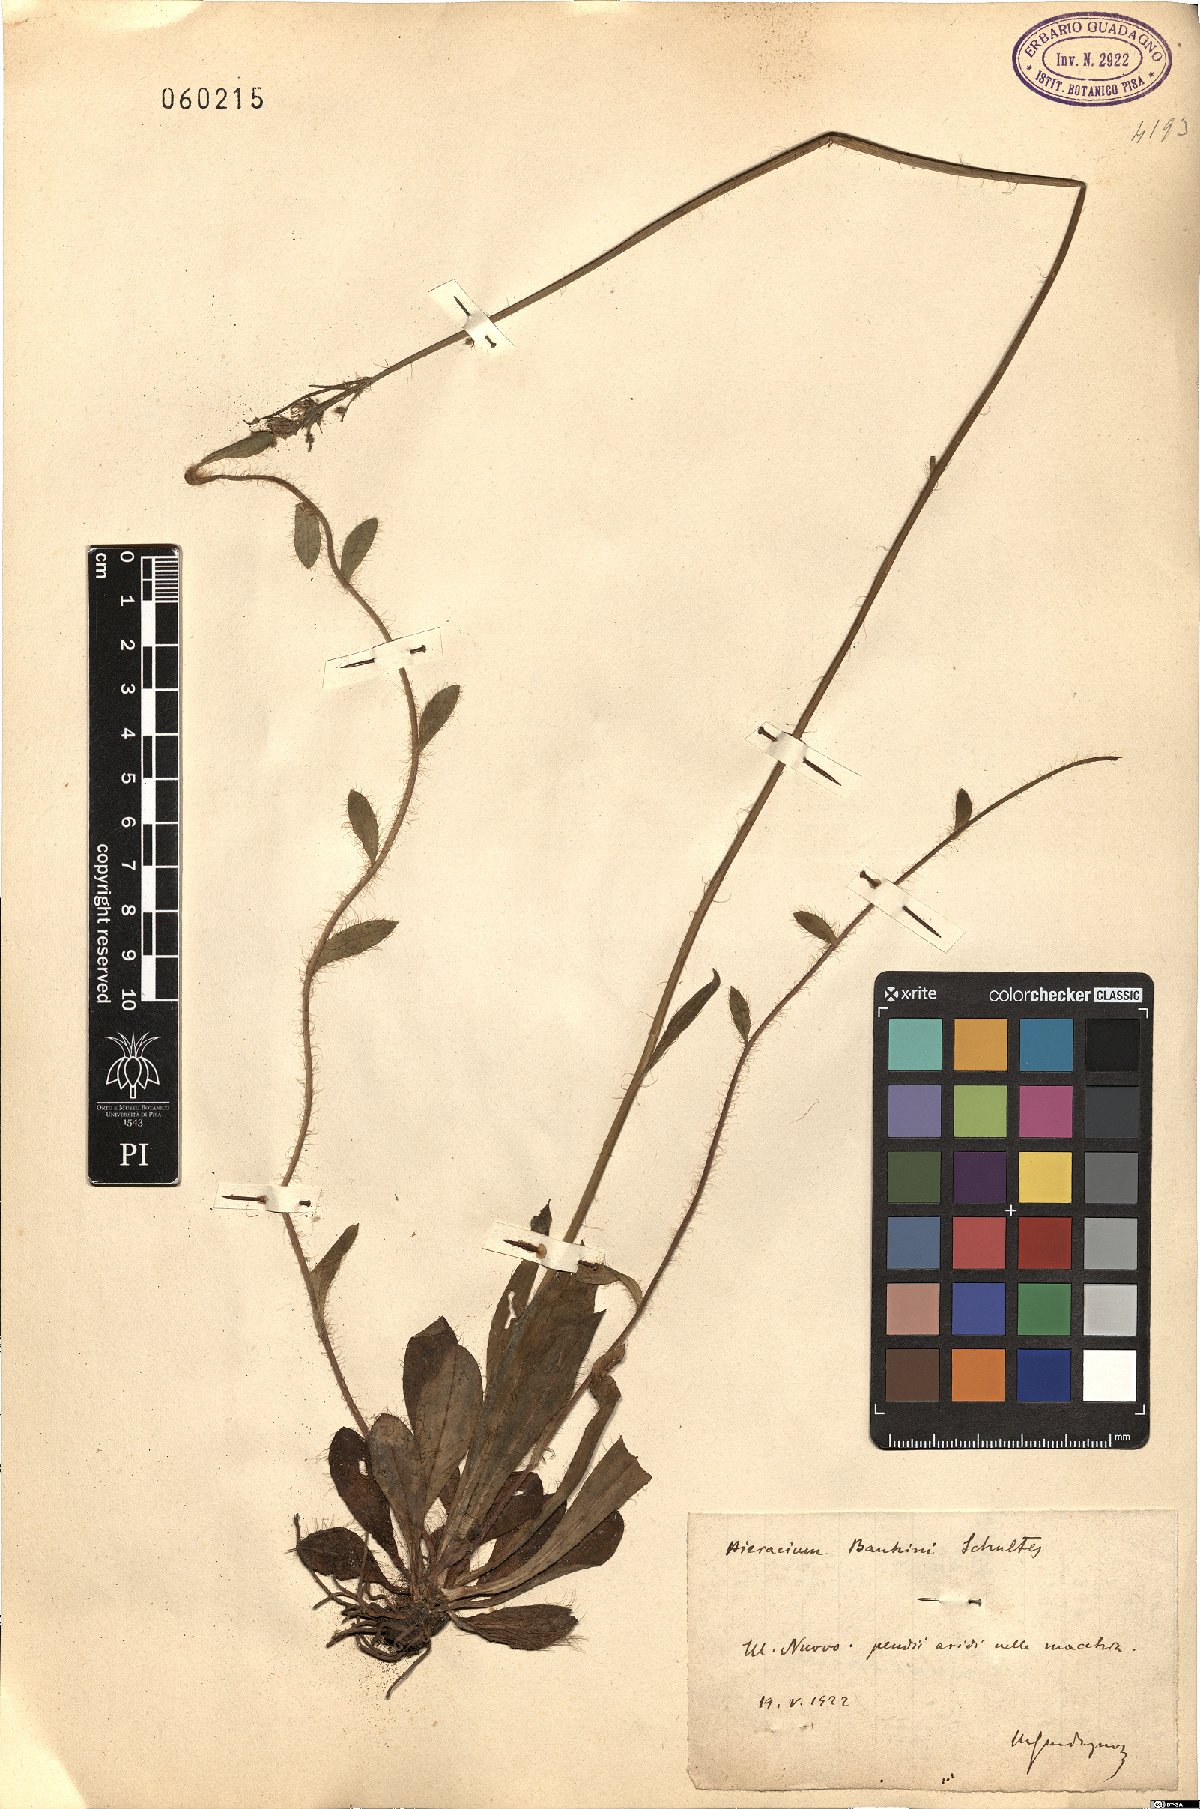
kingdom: Plantae
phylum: Tracheophyta
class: Magnoliopsida
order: Asterales
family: Asteraceae
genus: Pilosella
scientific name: Pilosella bauhini
